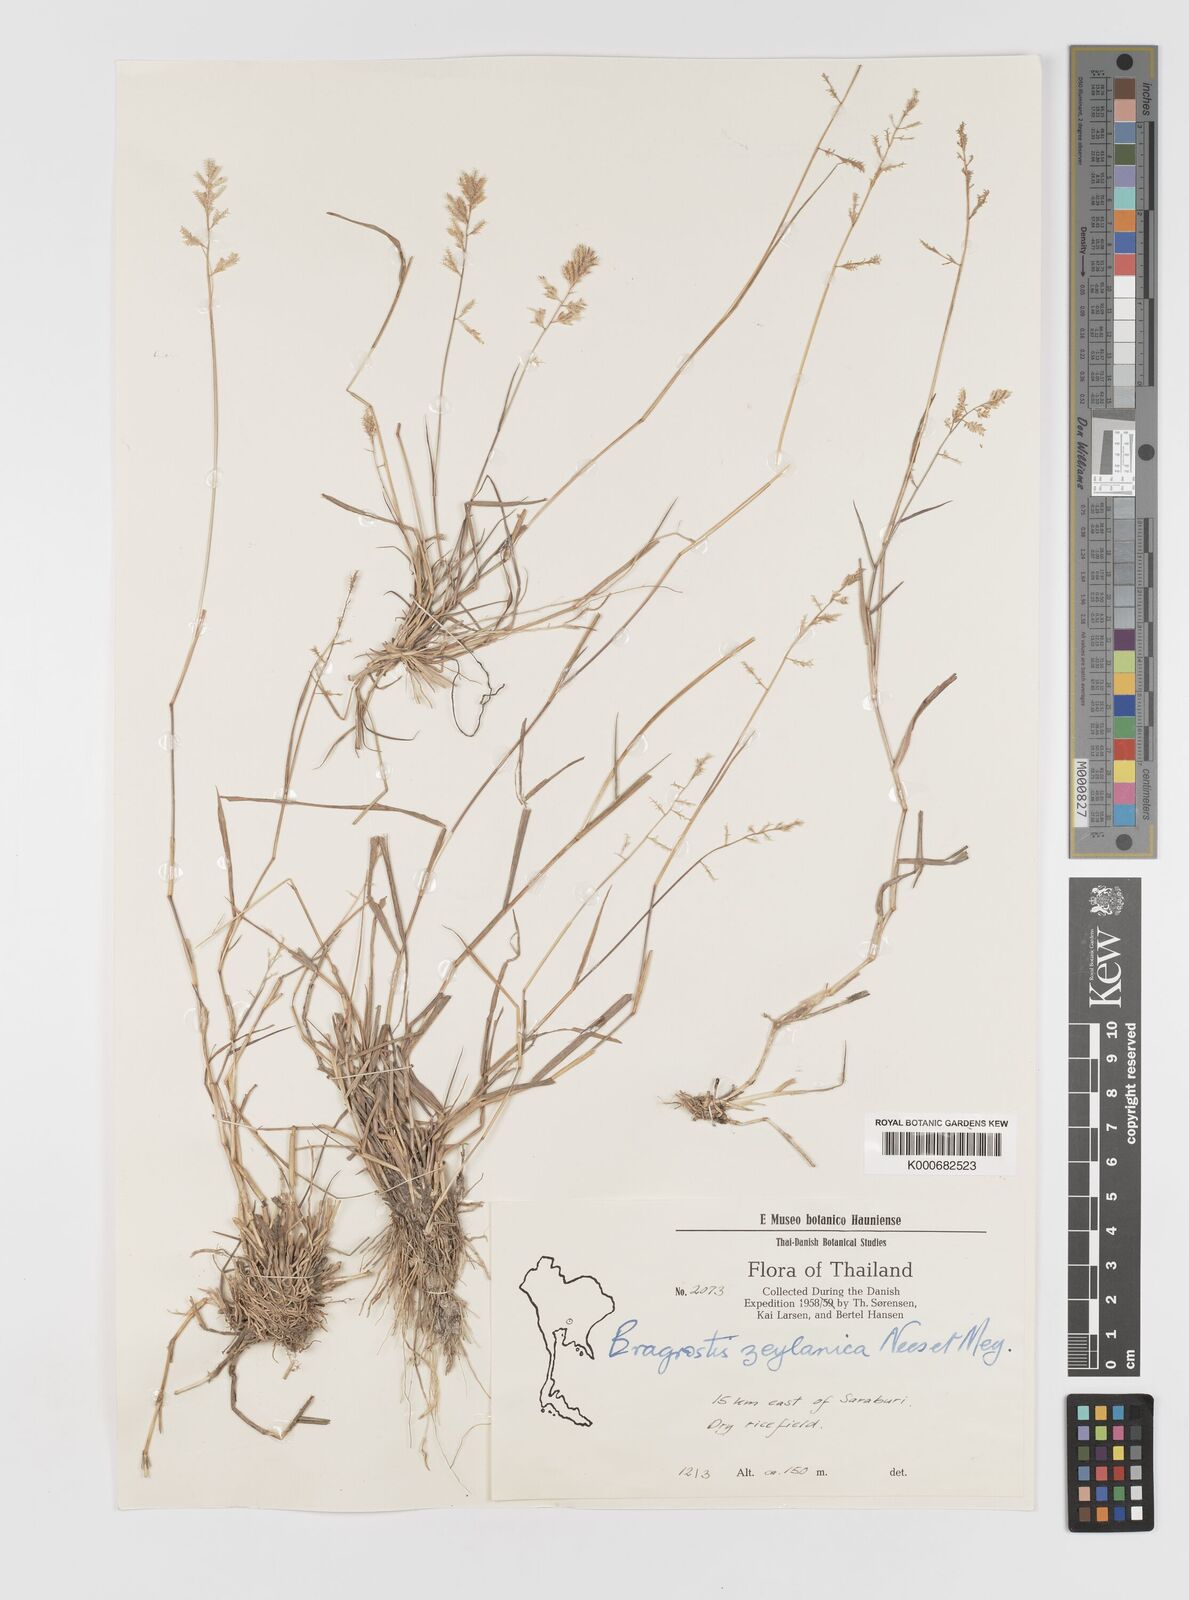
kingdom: Plantae
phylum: Tracheophyta
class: Liliopsida
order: Poales
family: Poaceae
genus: Eragrostis
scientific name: Eragrostis subsecunda
